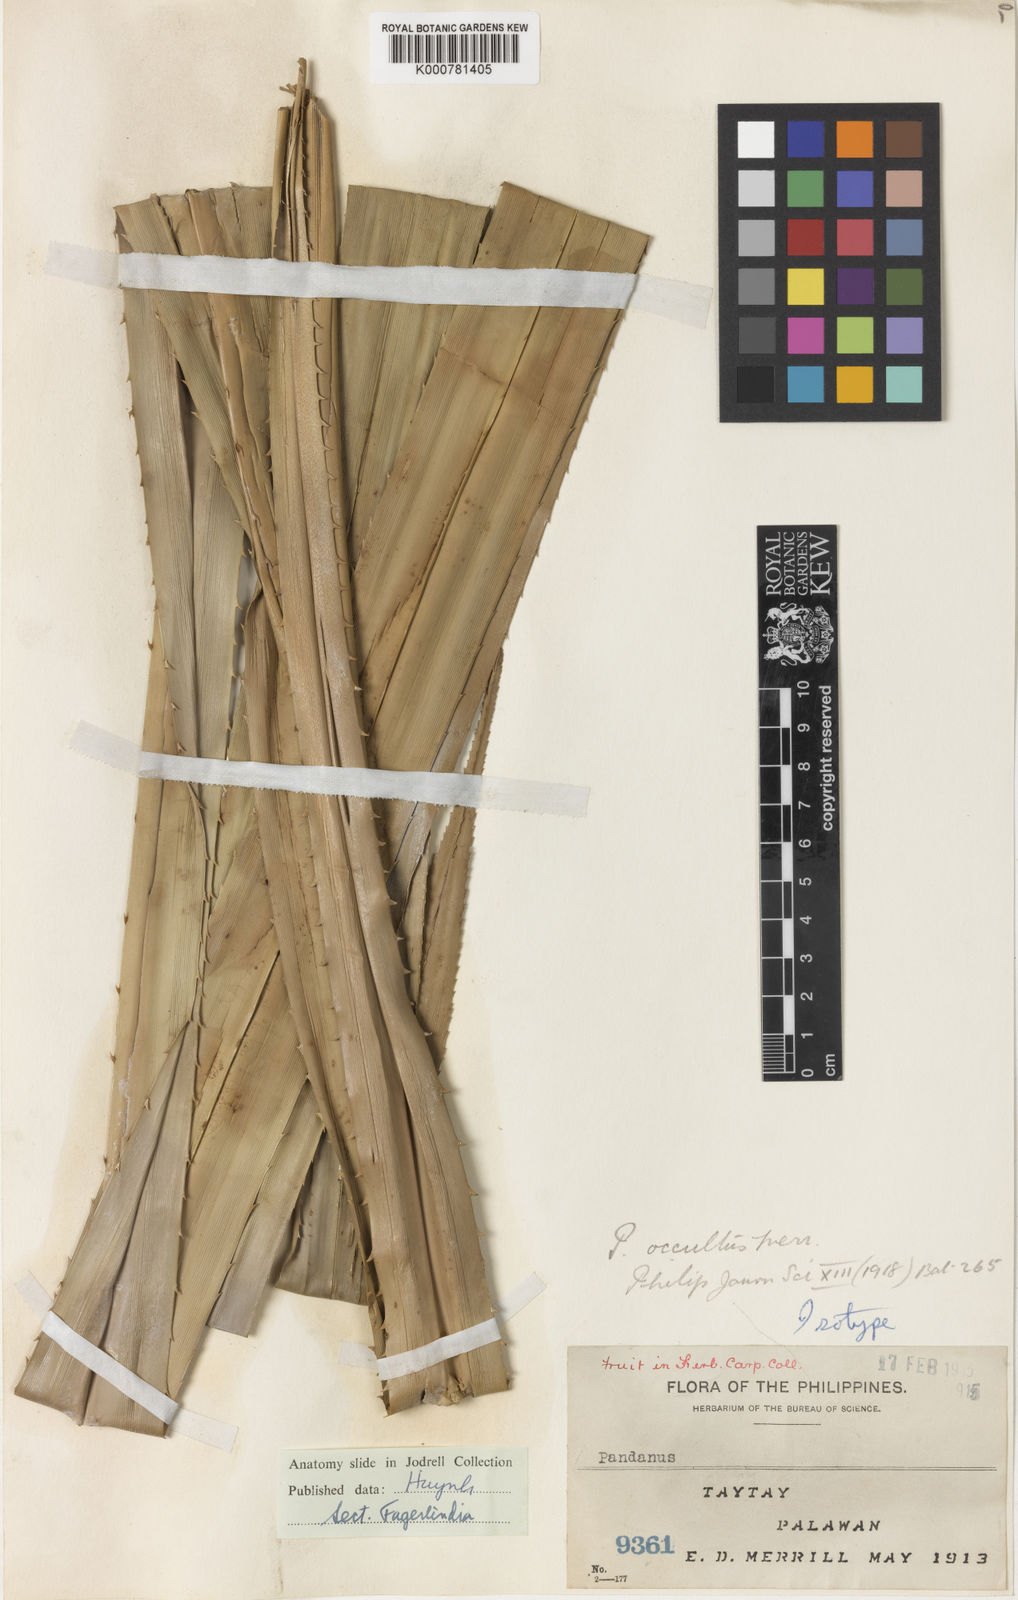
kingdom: Plantae
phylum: Tracheophyta
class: Liliopsida
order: Pandanales
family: Pandanaceae
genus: Pandanus
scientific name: Pandanus occultus
